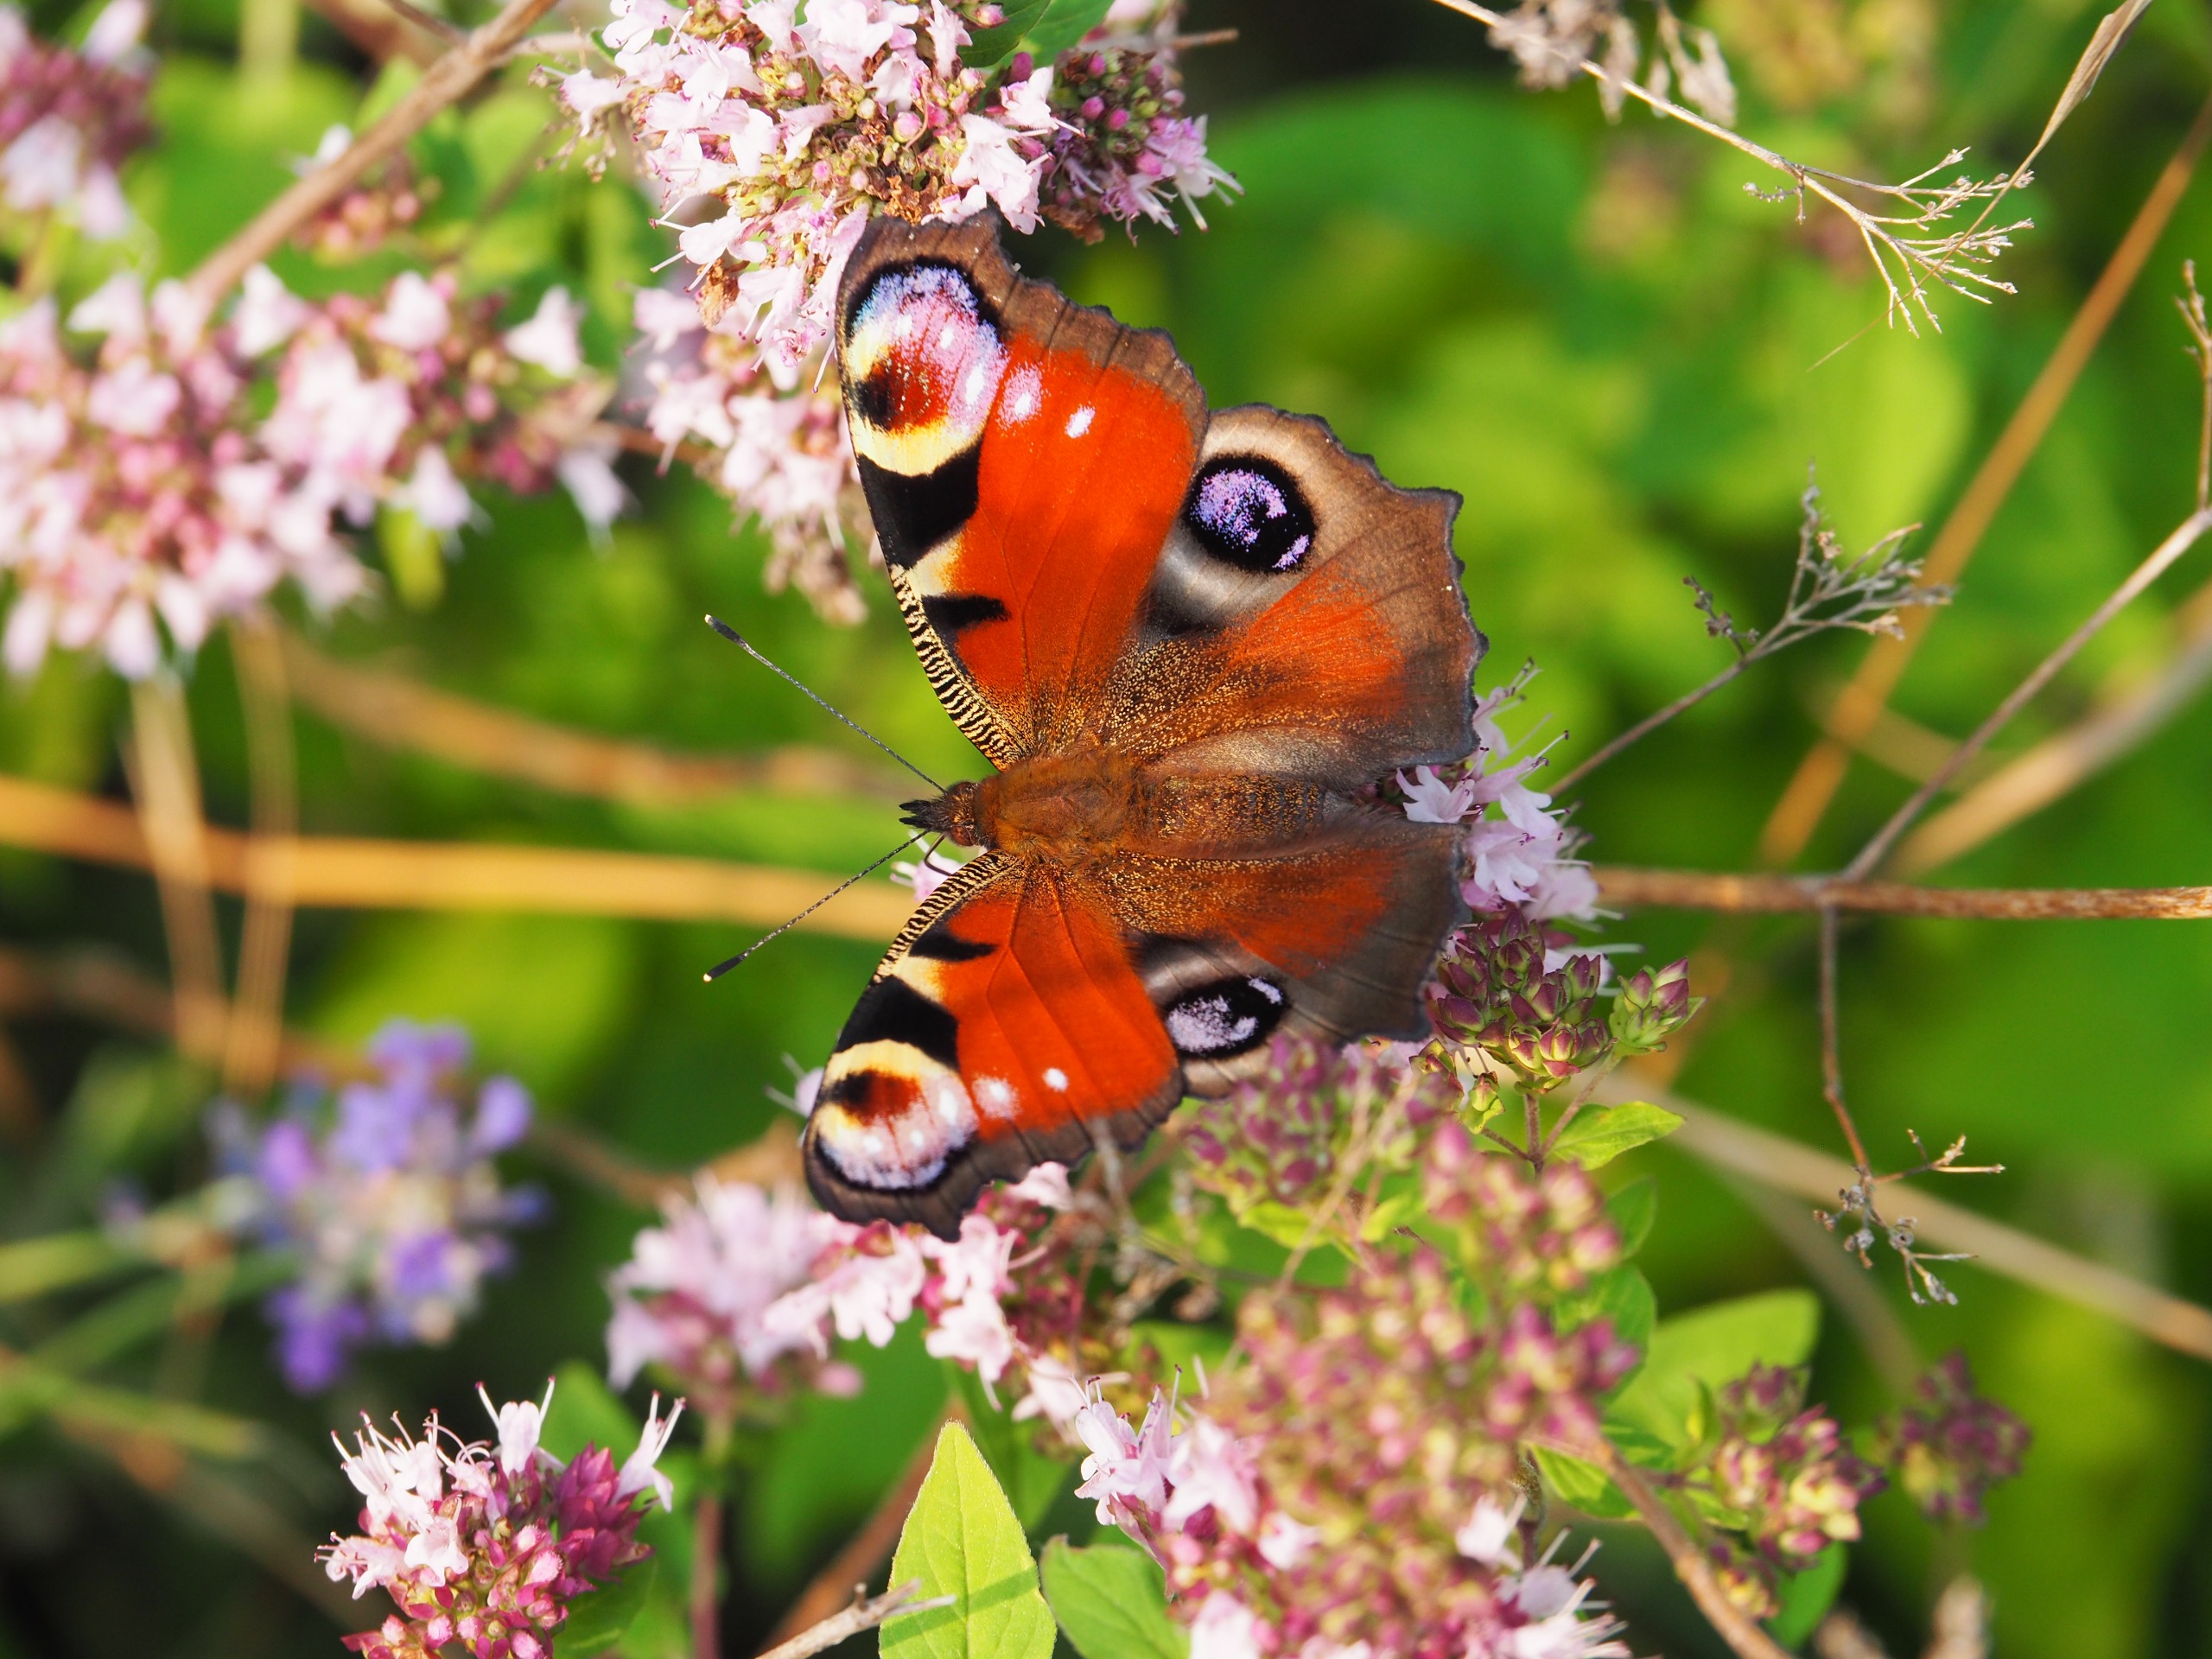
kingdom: Animalia
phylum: Arthropoda
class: Insecta
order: Lepidoptera
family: Nymphalidae
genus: Aglais
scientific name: Aglais io
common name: Dagpåfugleøje
